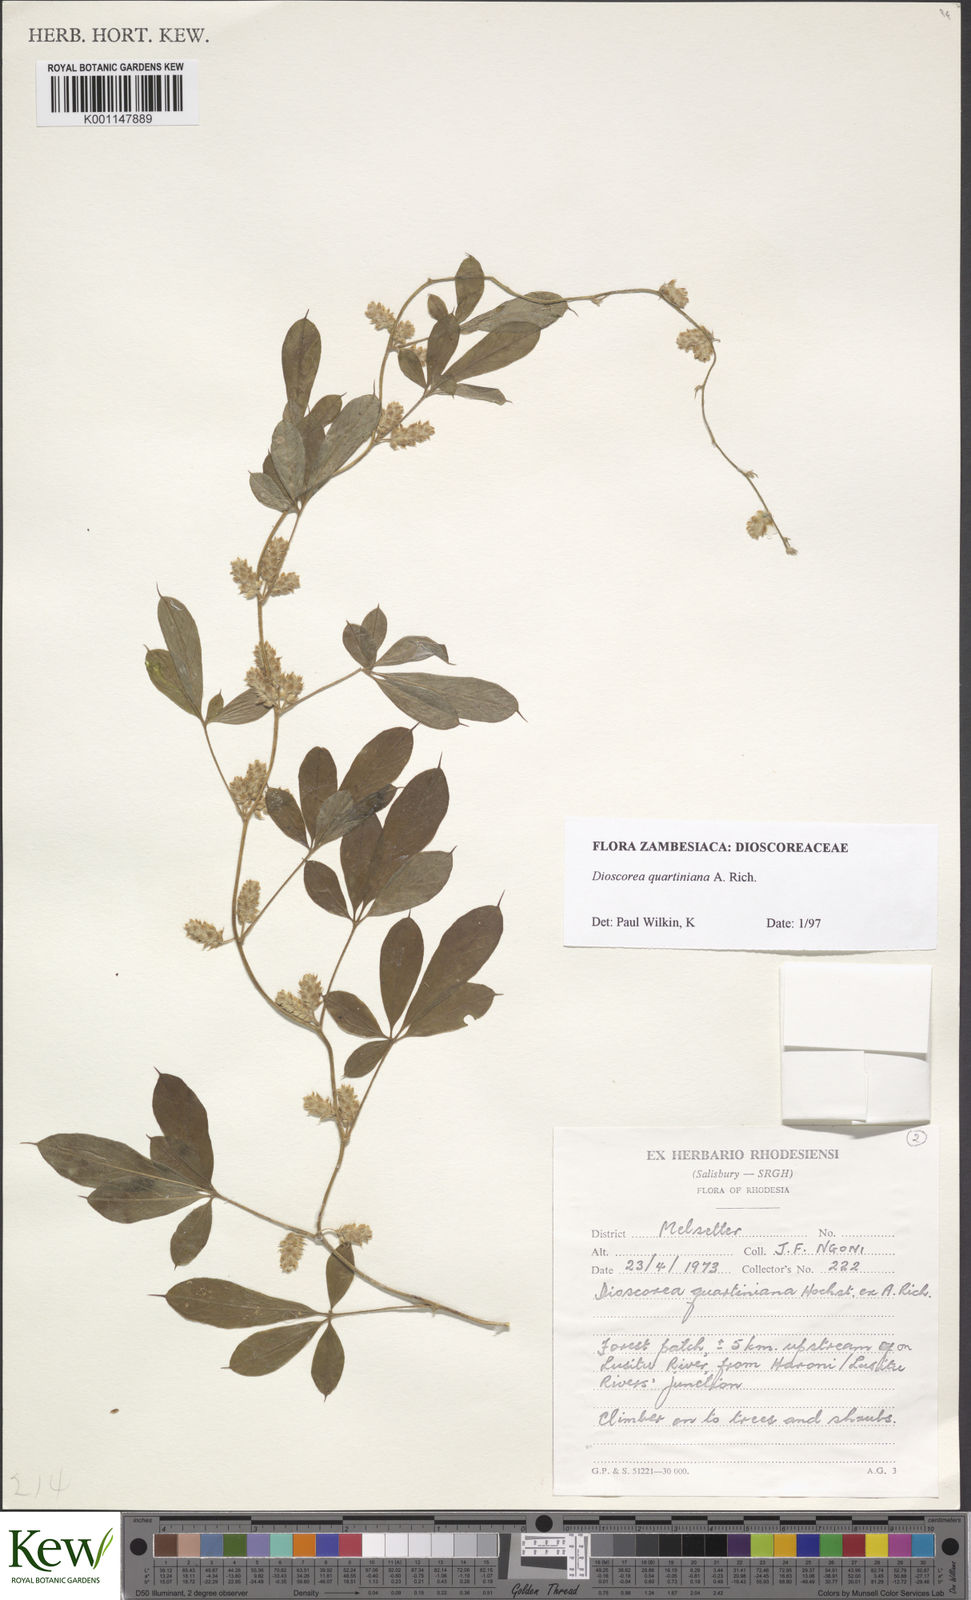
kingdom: Plantae
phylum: Tracheophyta
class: Liliopsida
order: Dioscoreales
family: Dioscoreaceae
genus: Dioscorea
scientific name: Dioscorea quartiniana
